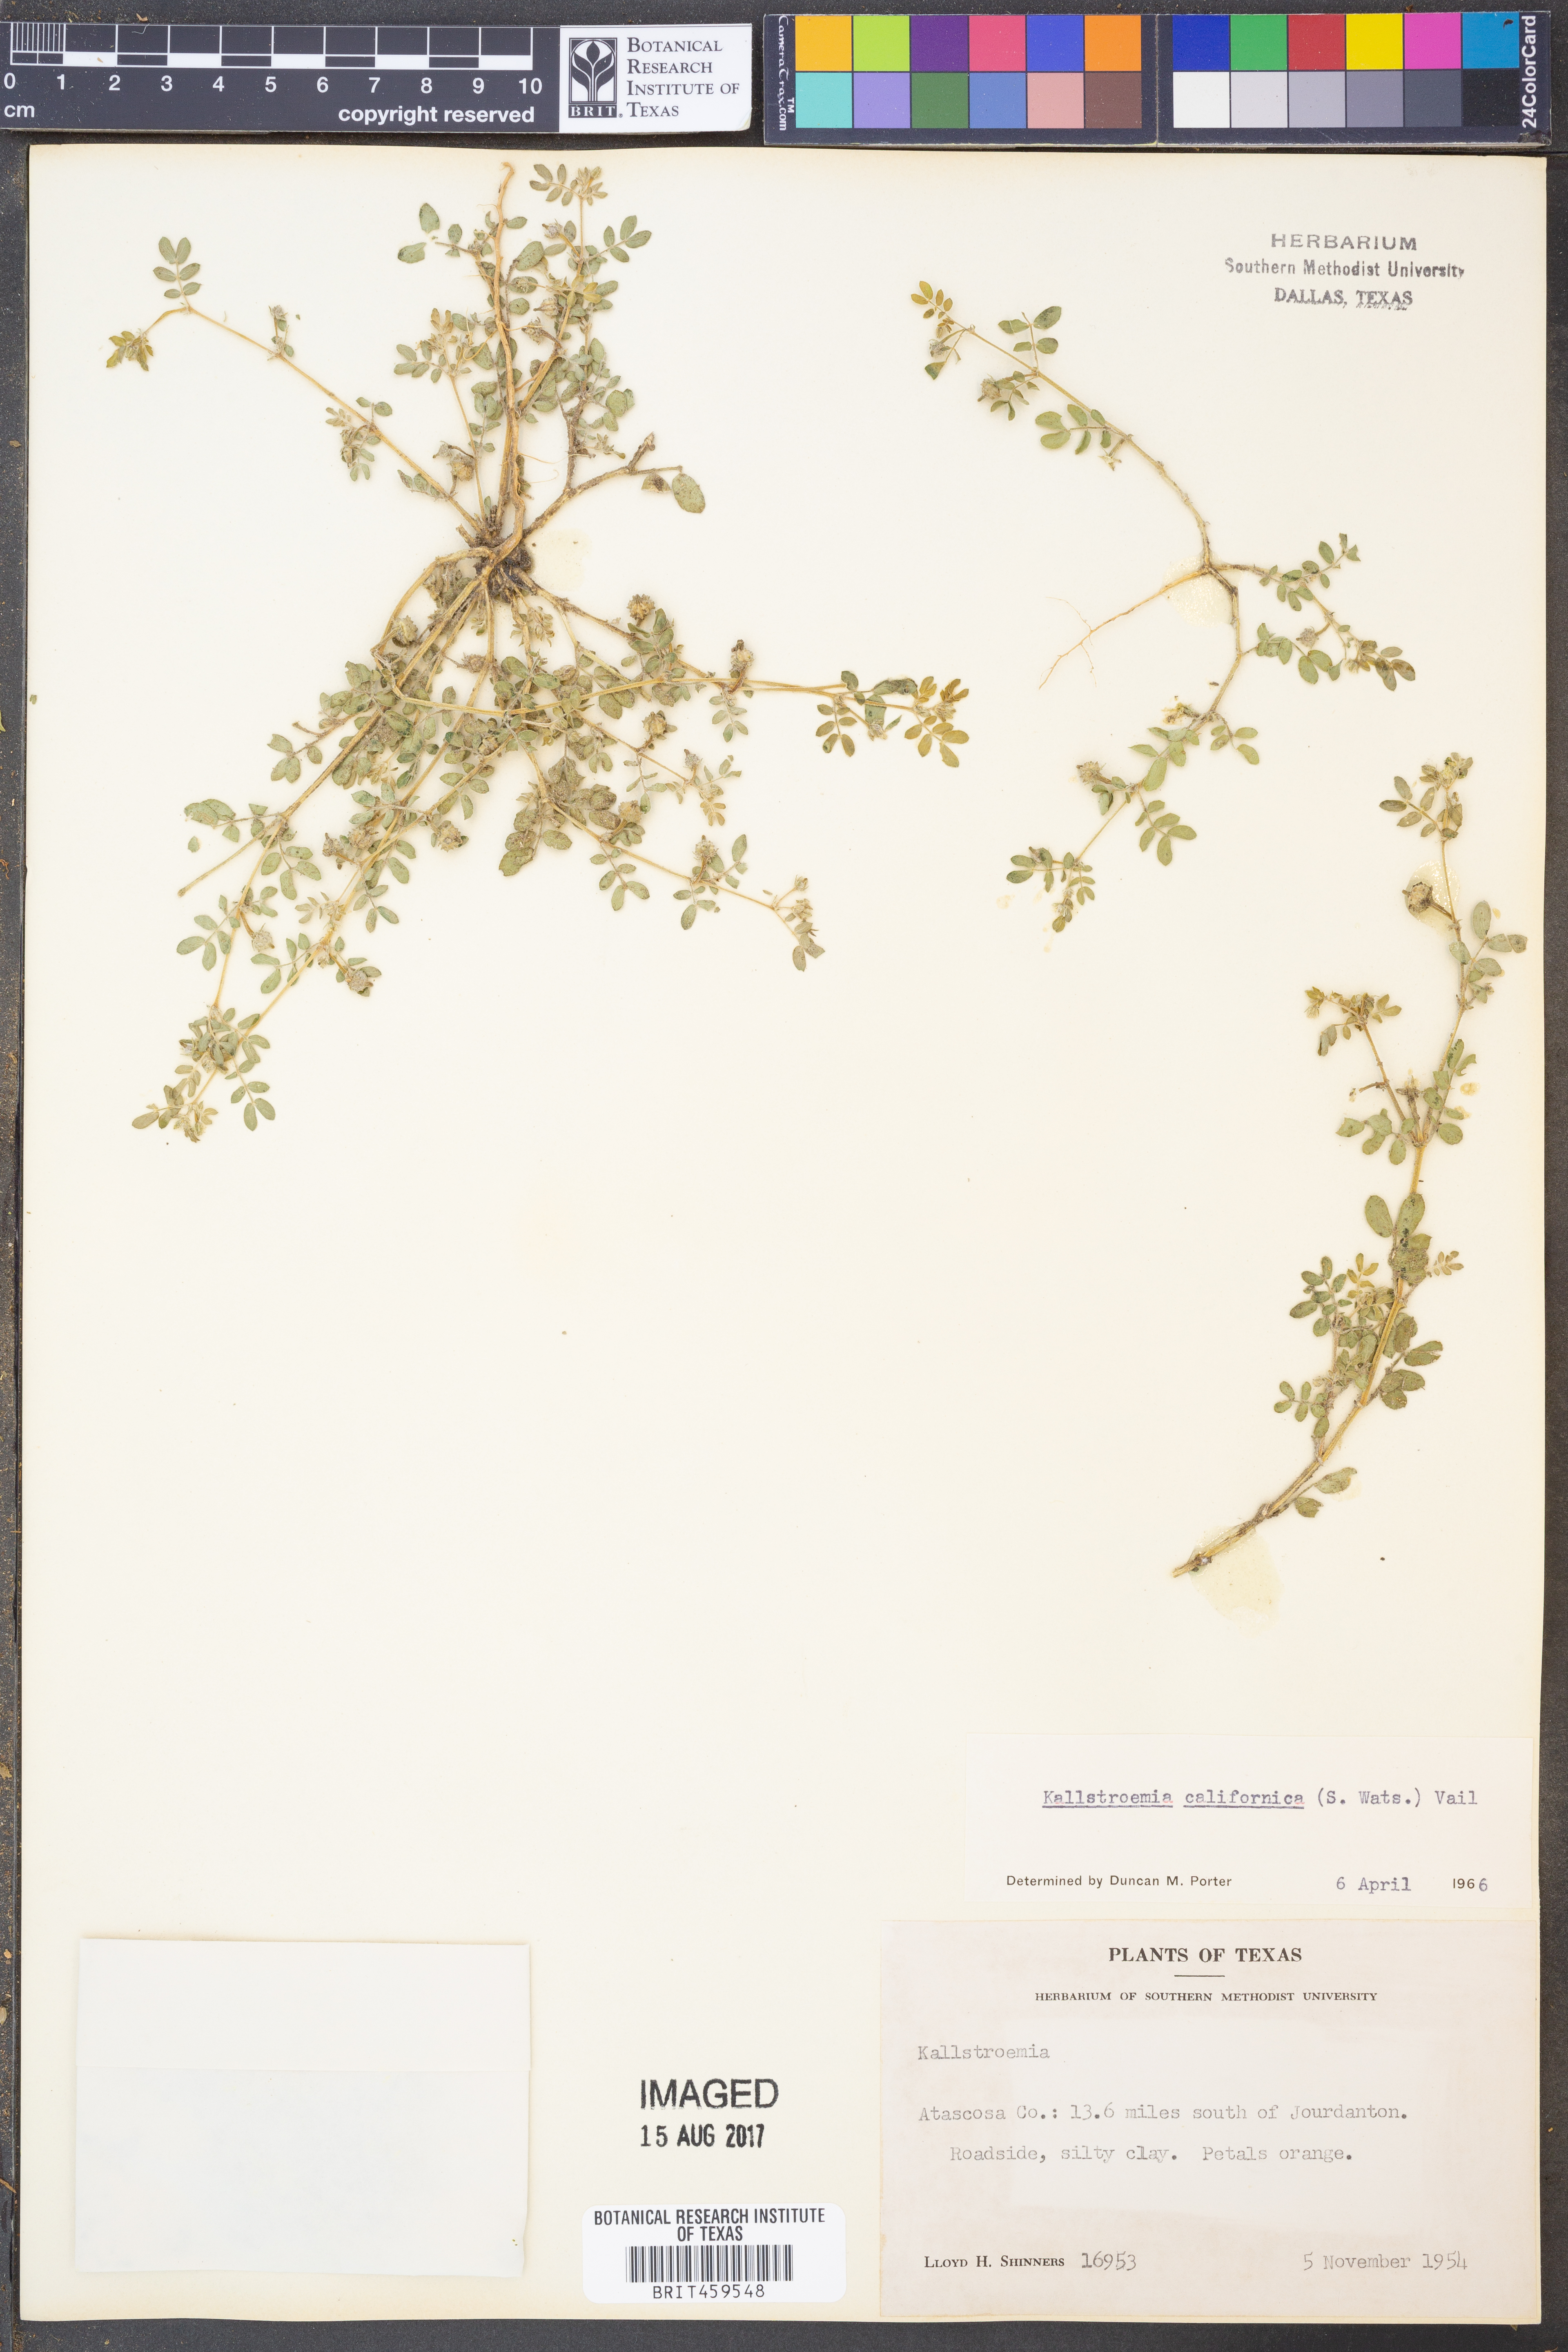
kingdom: Plantae
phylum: Tracheophyta
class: Magnoliopsida
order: Zygophyllales
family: Zygophyllaceae
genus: Kallstroemia
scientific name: Kallstroemia californica
